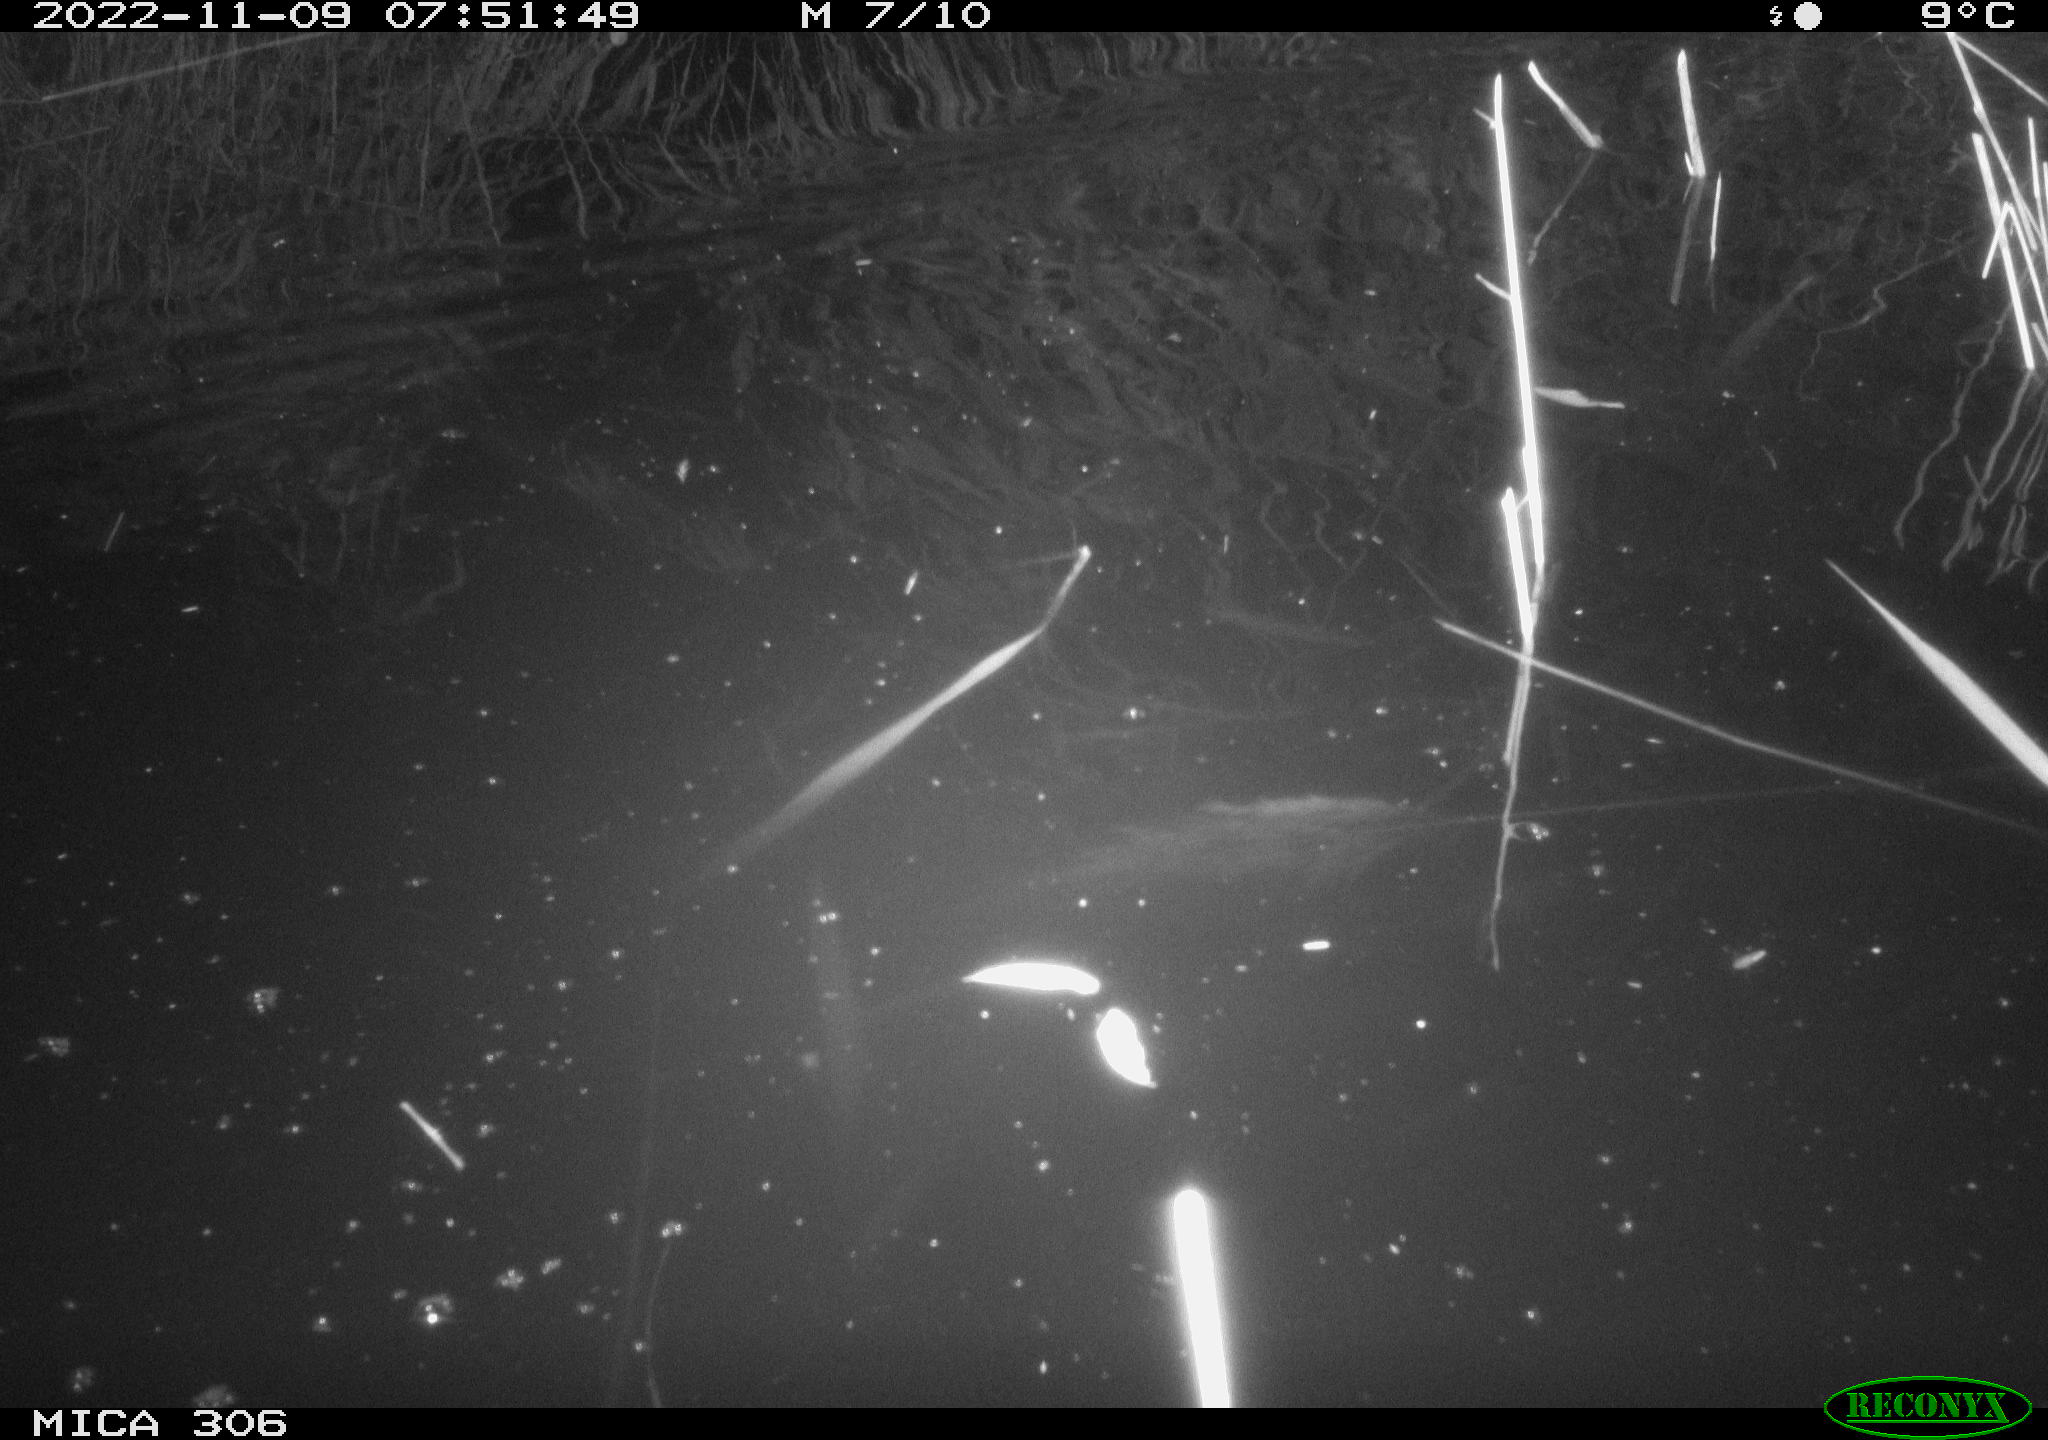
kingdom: Animalia
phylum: Chordata
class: Mammalia
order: Rodentia
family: Muridae
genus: Rattus
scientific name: Rattus norvegicus
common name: Brown rat
